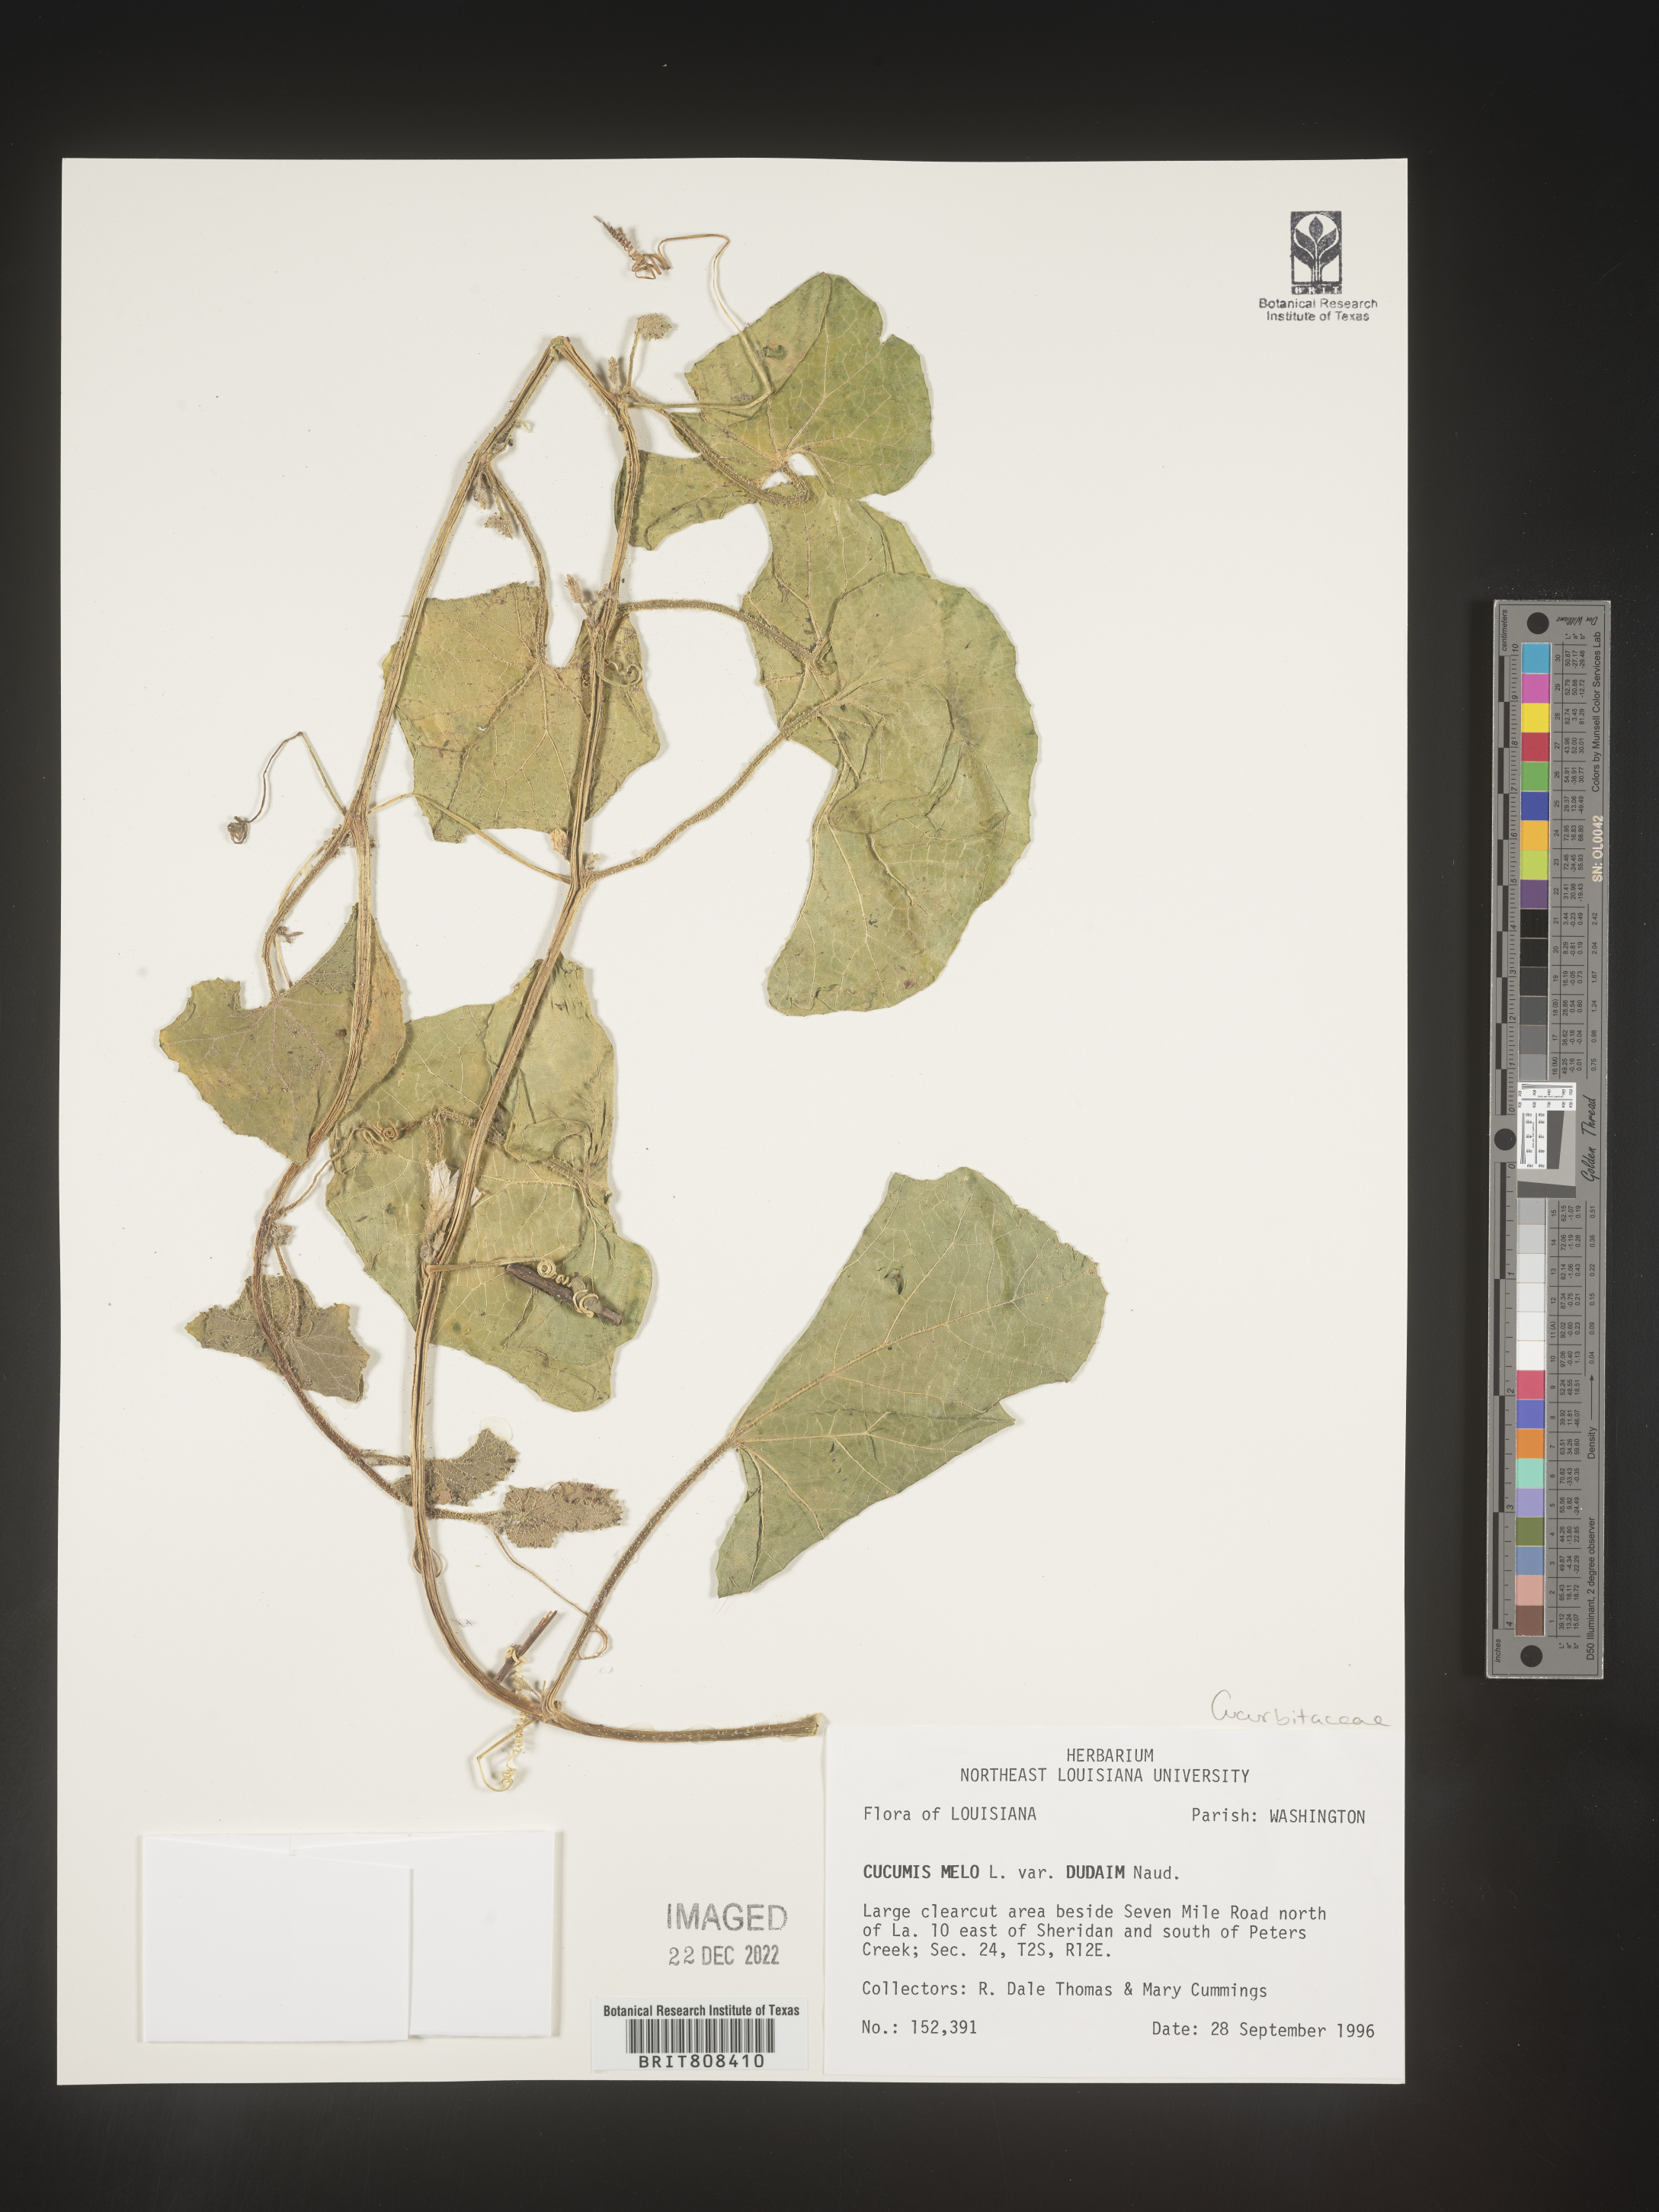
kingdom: Plantae
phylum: Tracheophyta
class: Magnoliopsida
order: Cucurbitales
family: Cucurbitaceae
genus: Cucumis
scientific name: Cucumis
